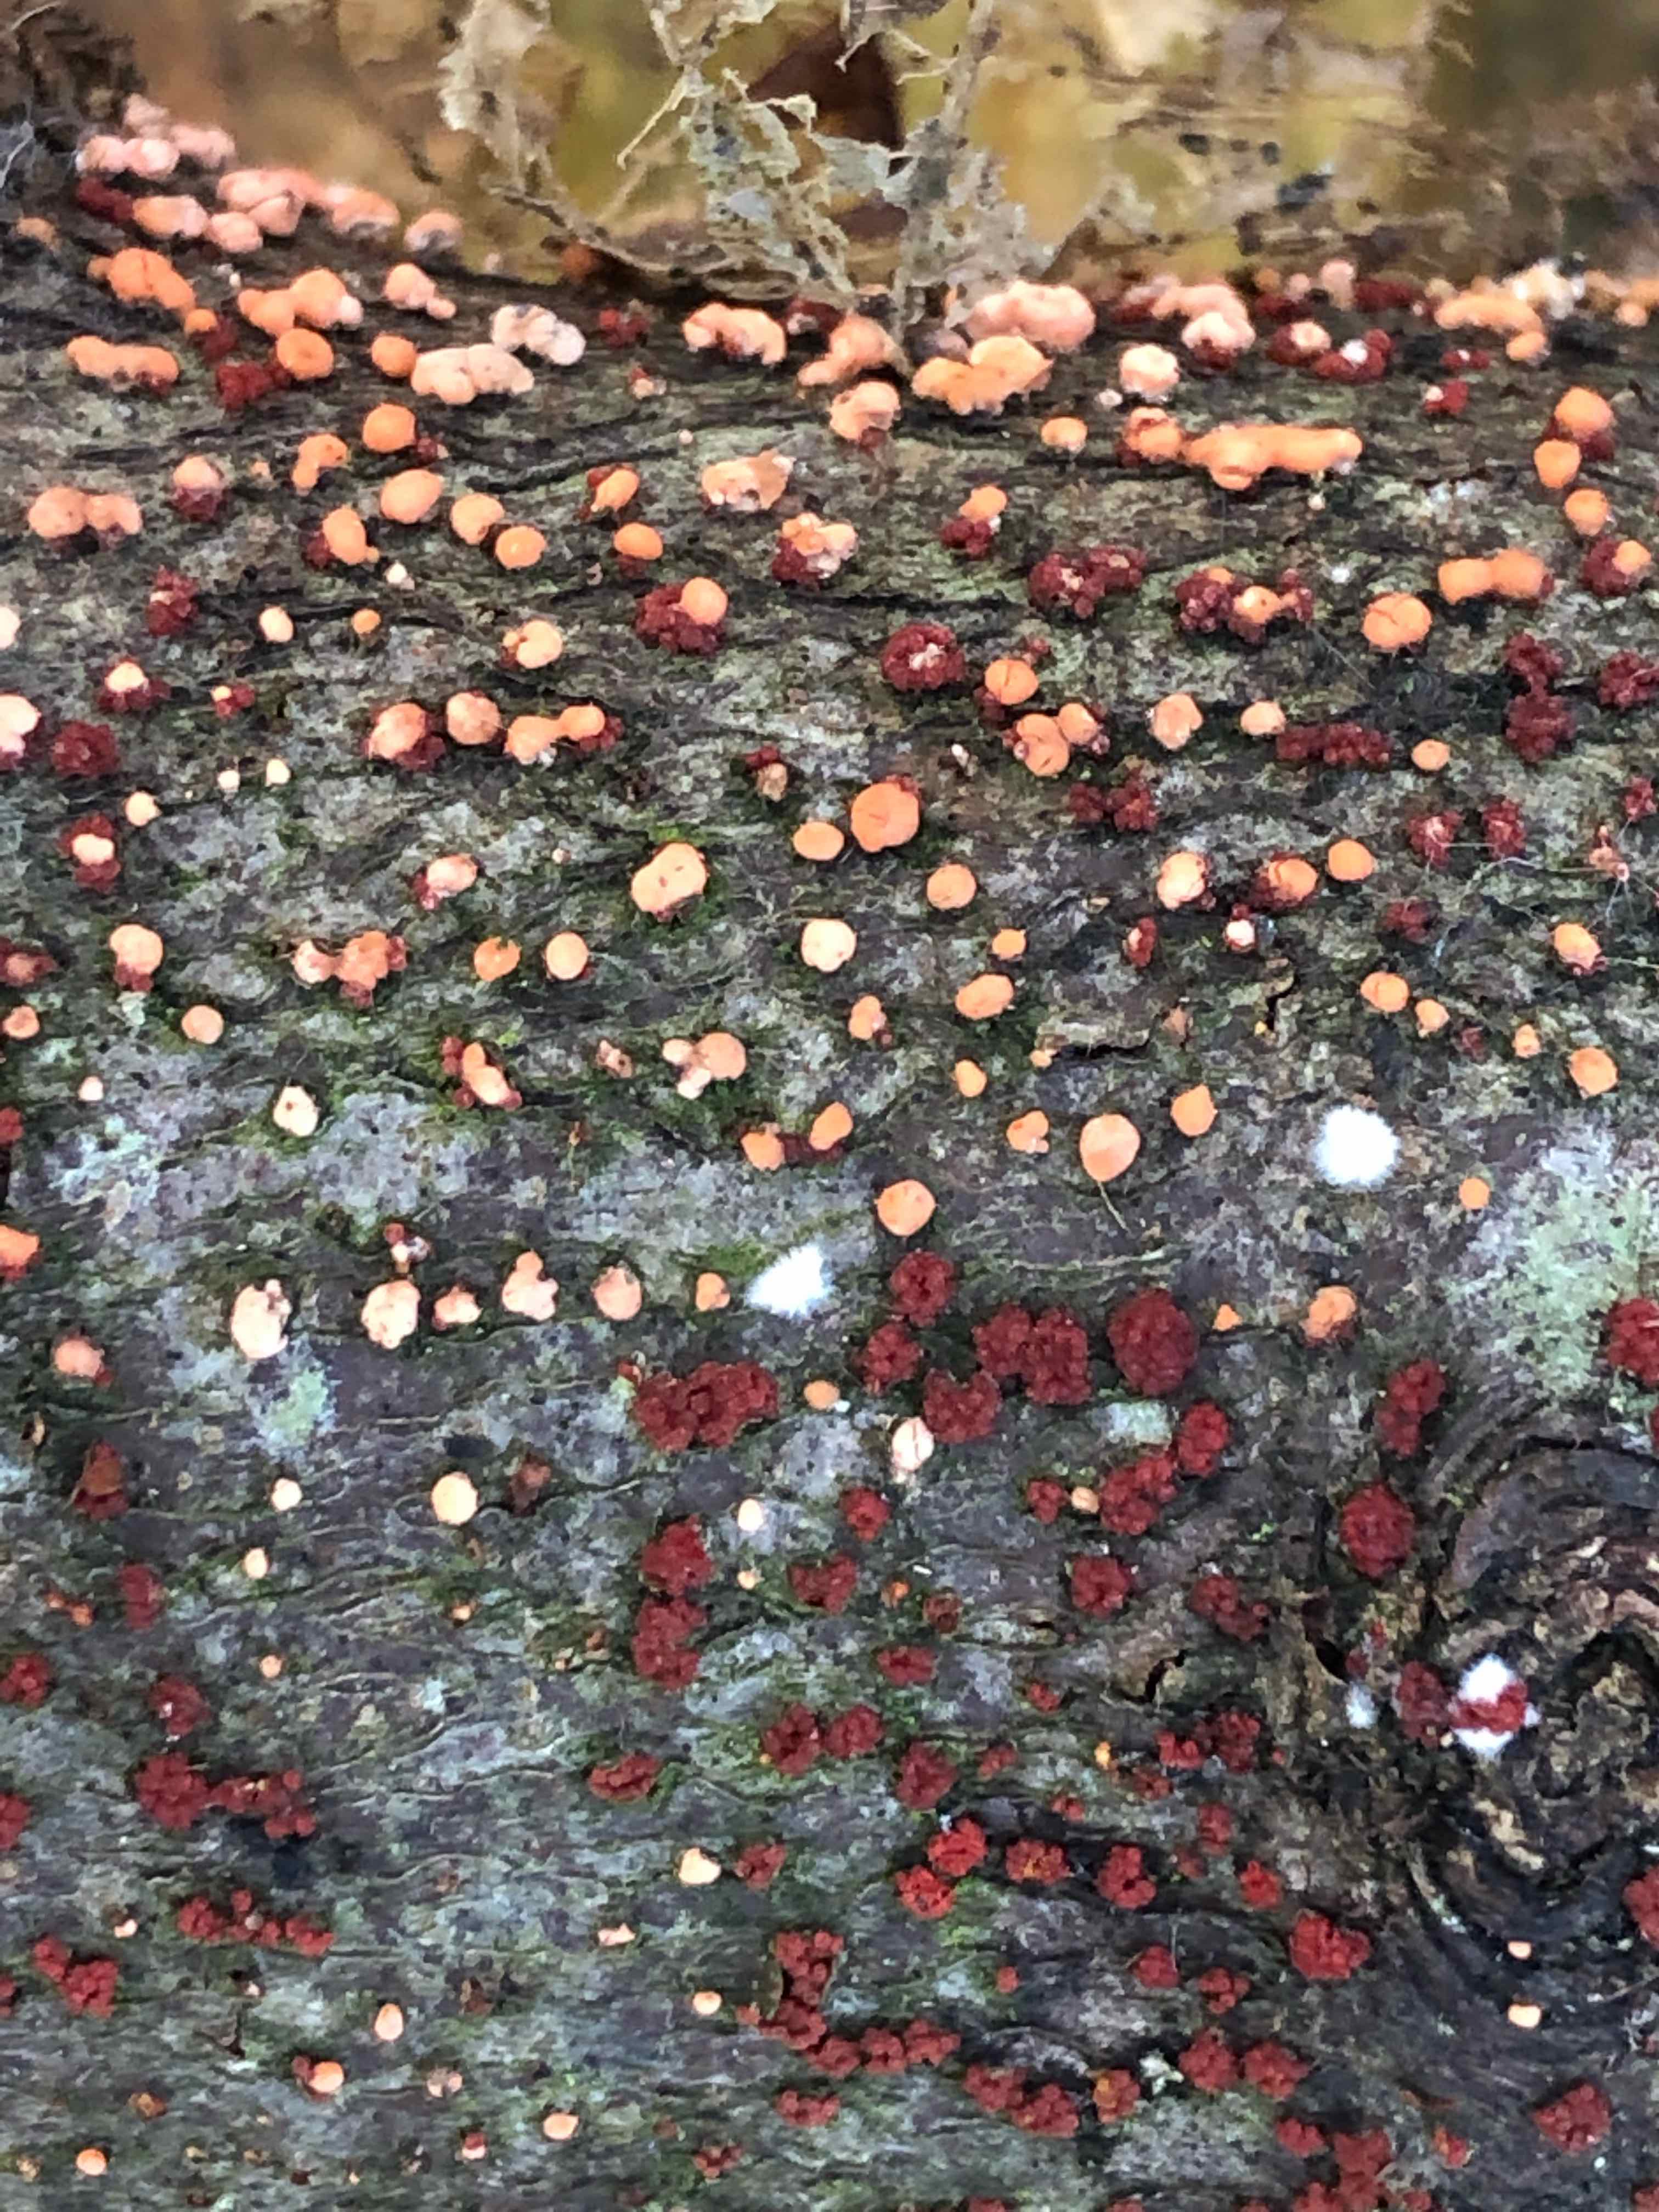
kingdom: Fungi
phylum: Ascomycota
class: Sordariomycetes
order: Hypocreales
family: Nectriaceae
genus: Nectria
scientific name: Nectria cinnabarina
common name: almindelig cinnobersvamp
